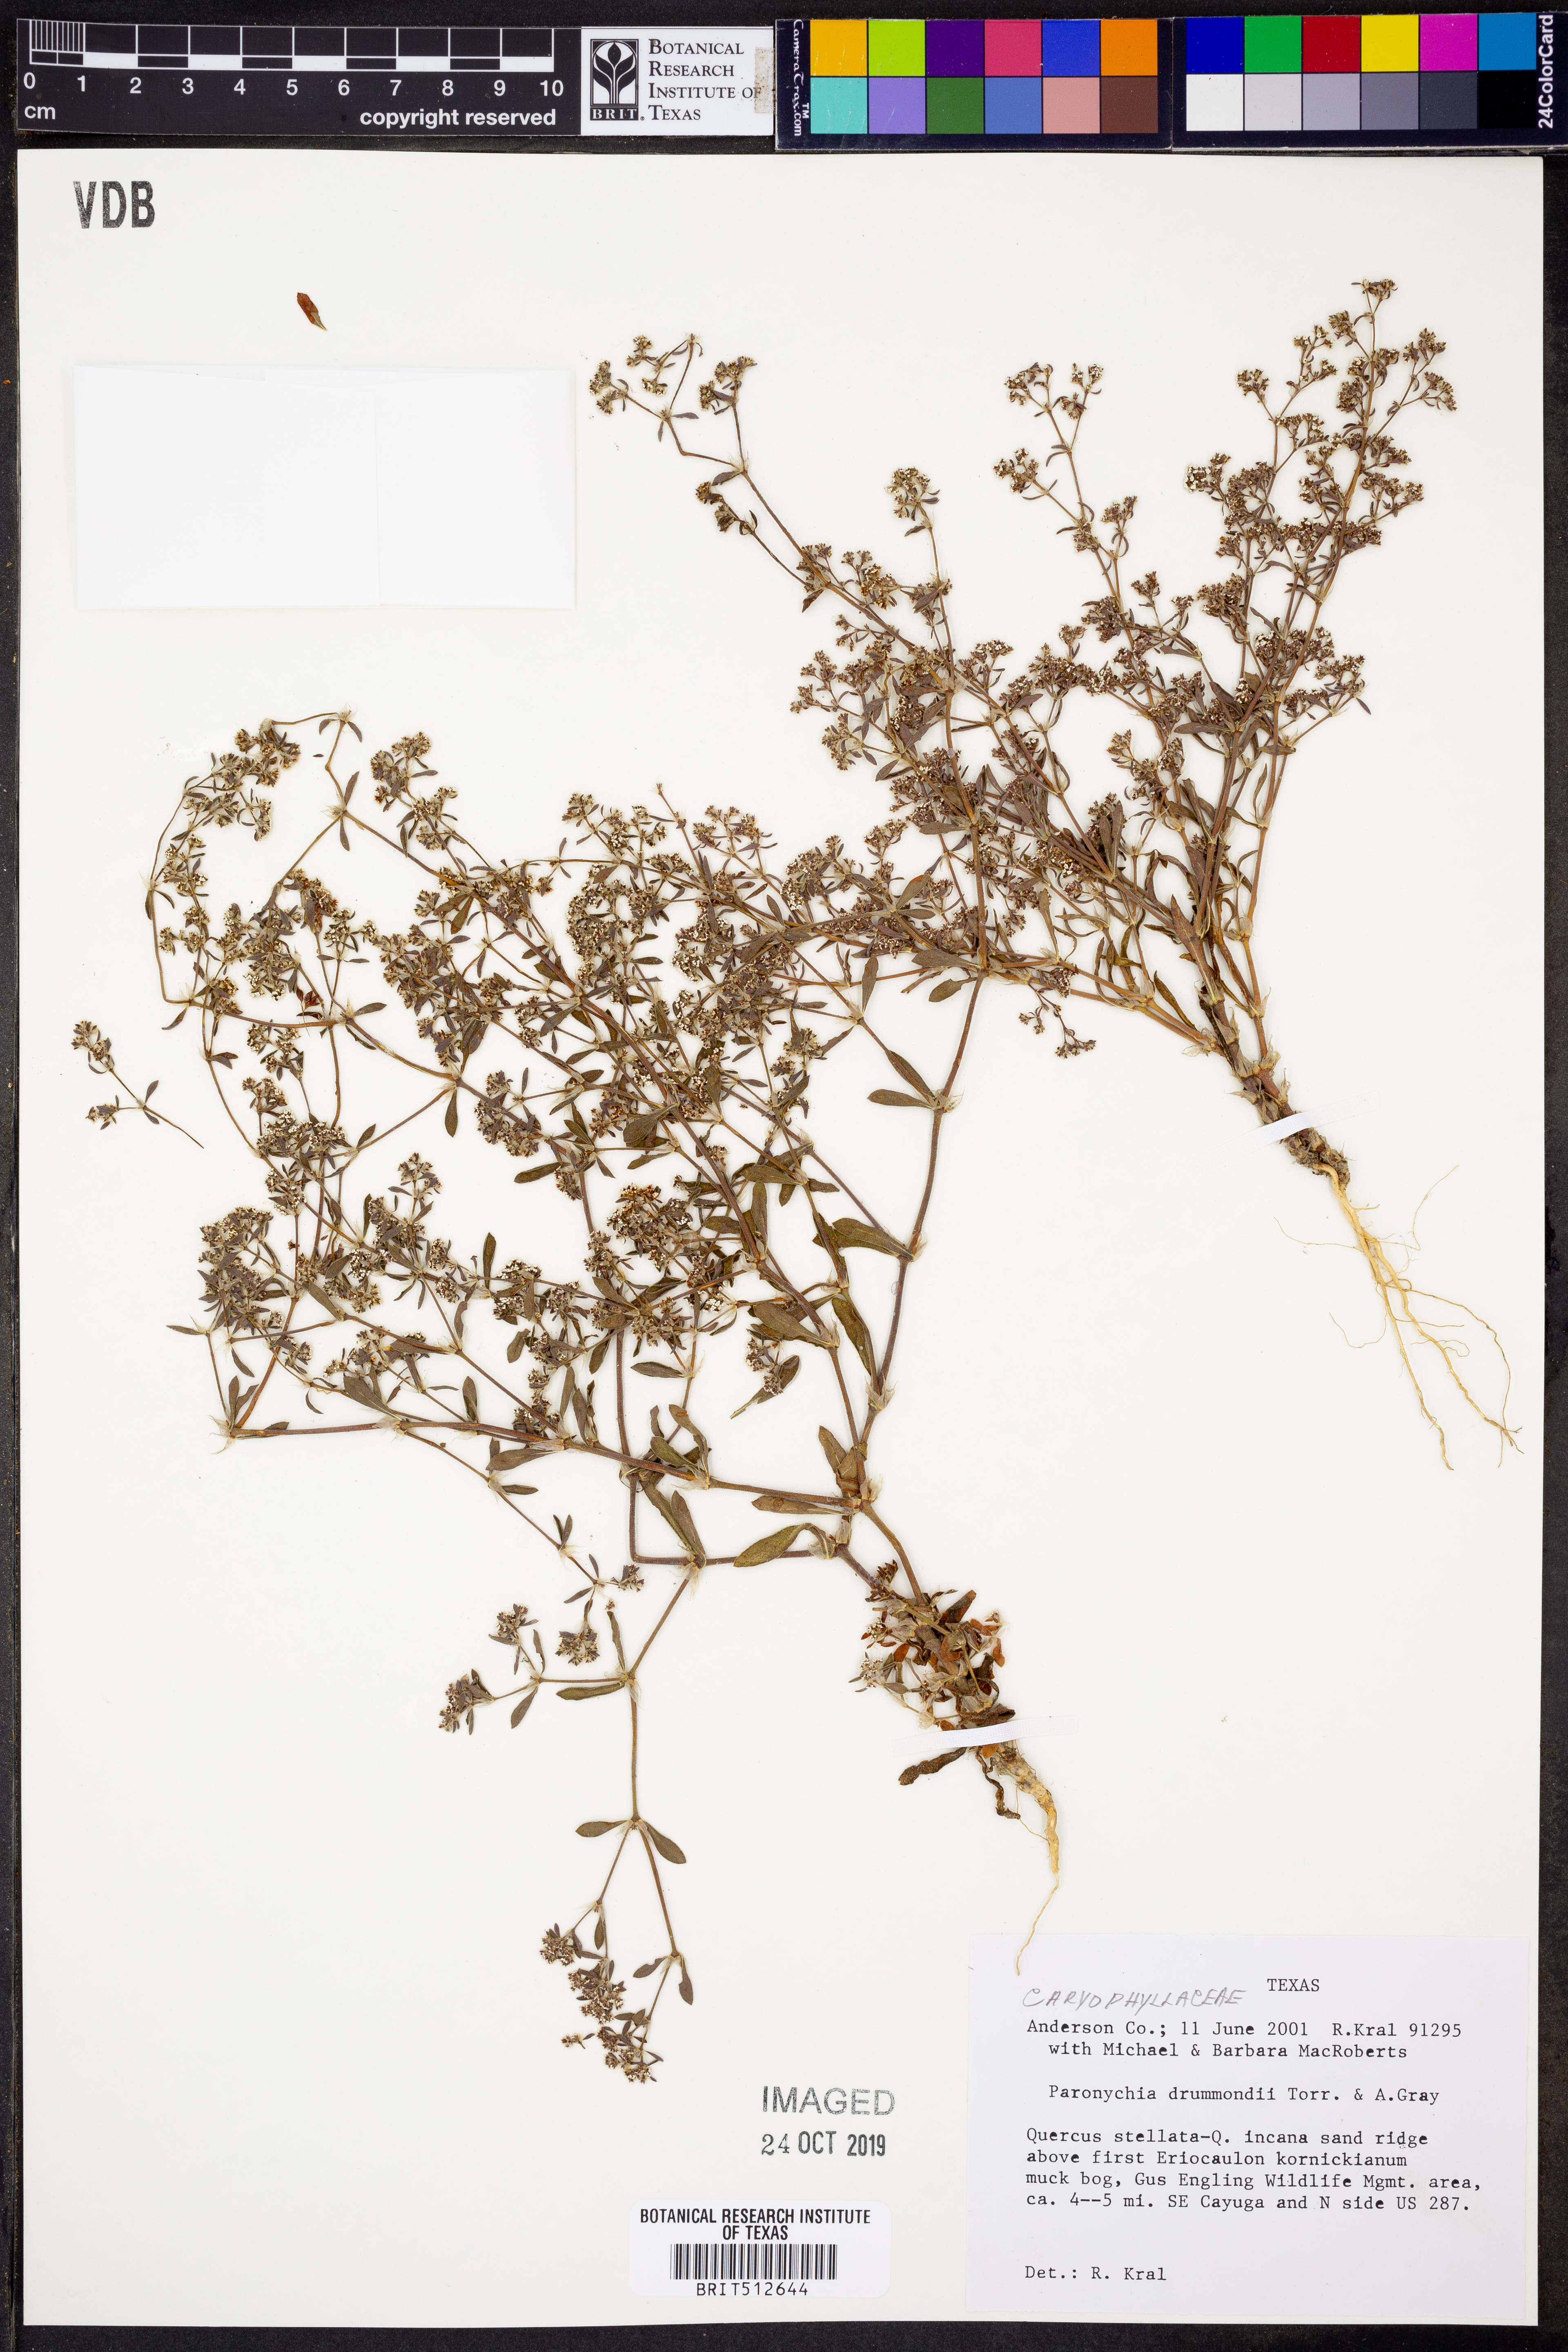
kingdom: Plantae
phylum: Tracheophyta
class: Magnoliopsida
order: Caryophyllales
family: Caryophyllaceae
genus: Paronychia
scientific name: Paronychia drummondii
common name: Drummond's nailwort
